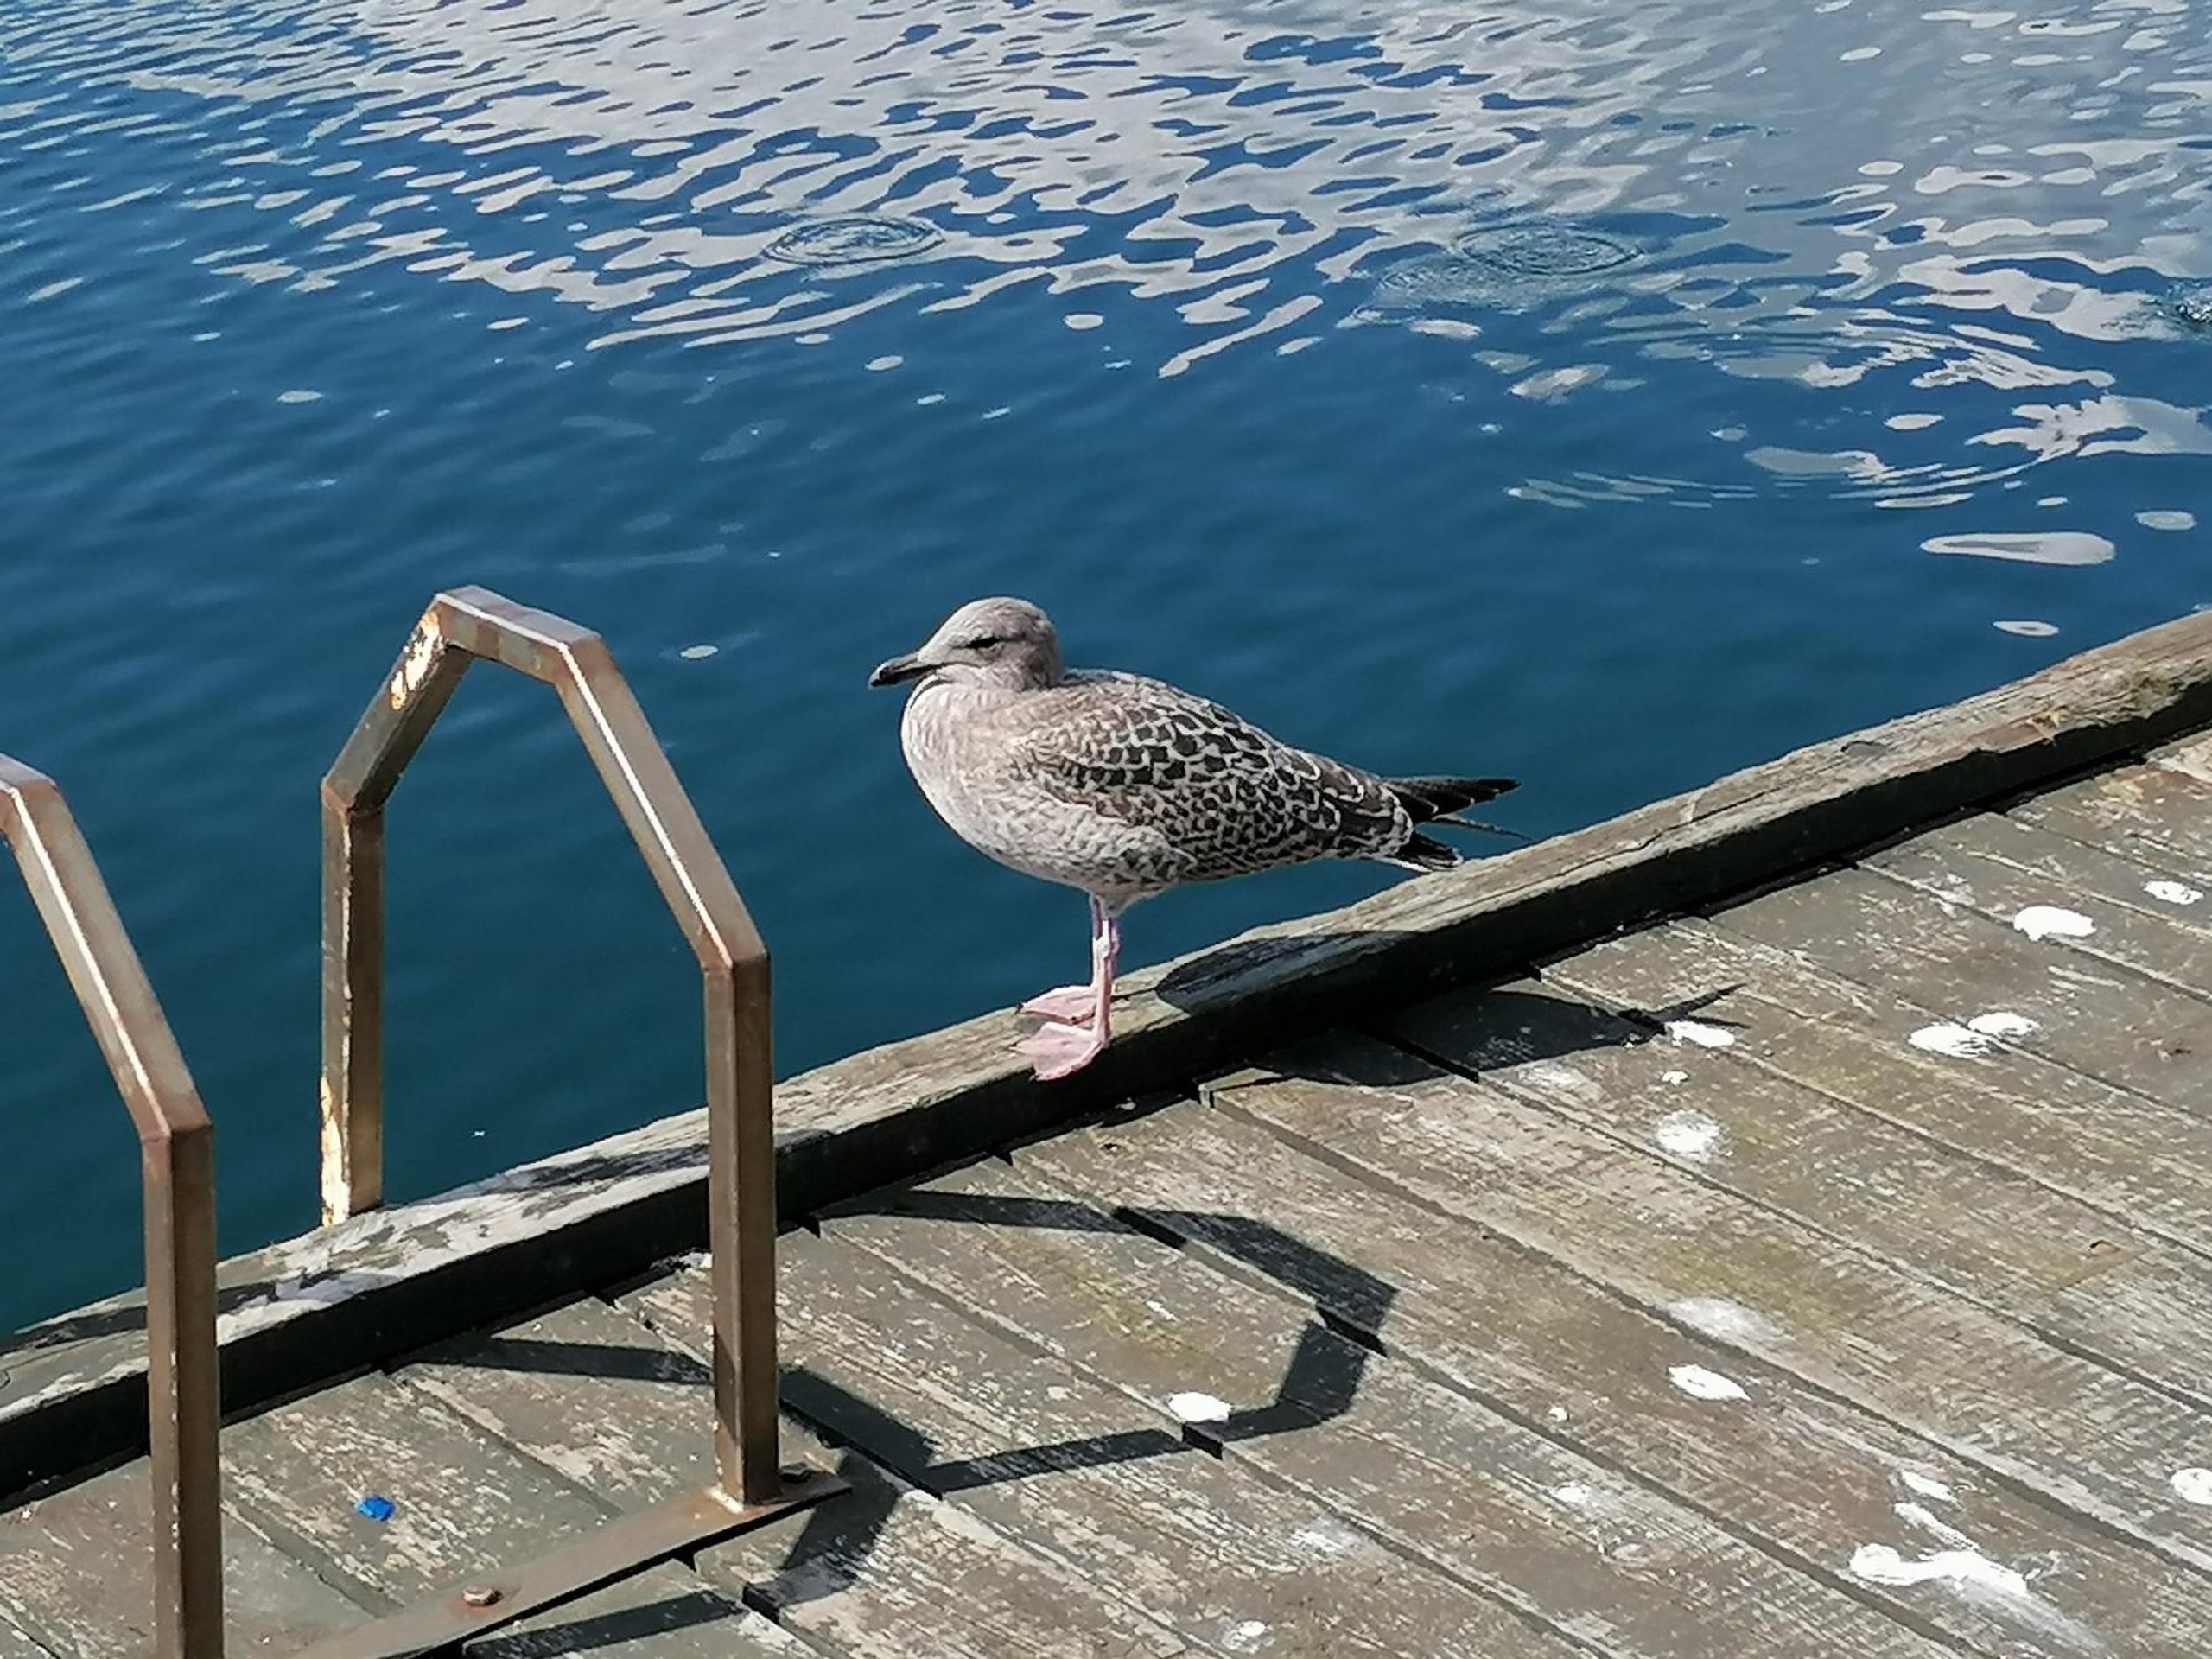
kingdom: Animalia
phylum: Chordata
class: Aves
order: Charadriiformes
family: Laridae
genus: Larus
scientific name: Larus argentatus
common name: Sølvmåge
